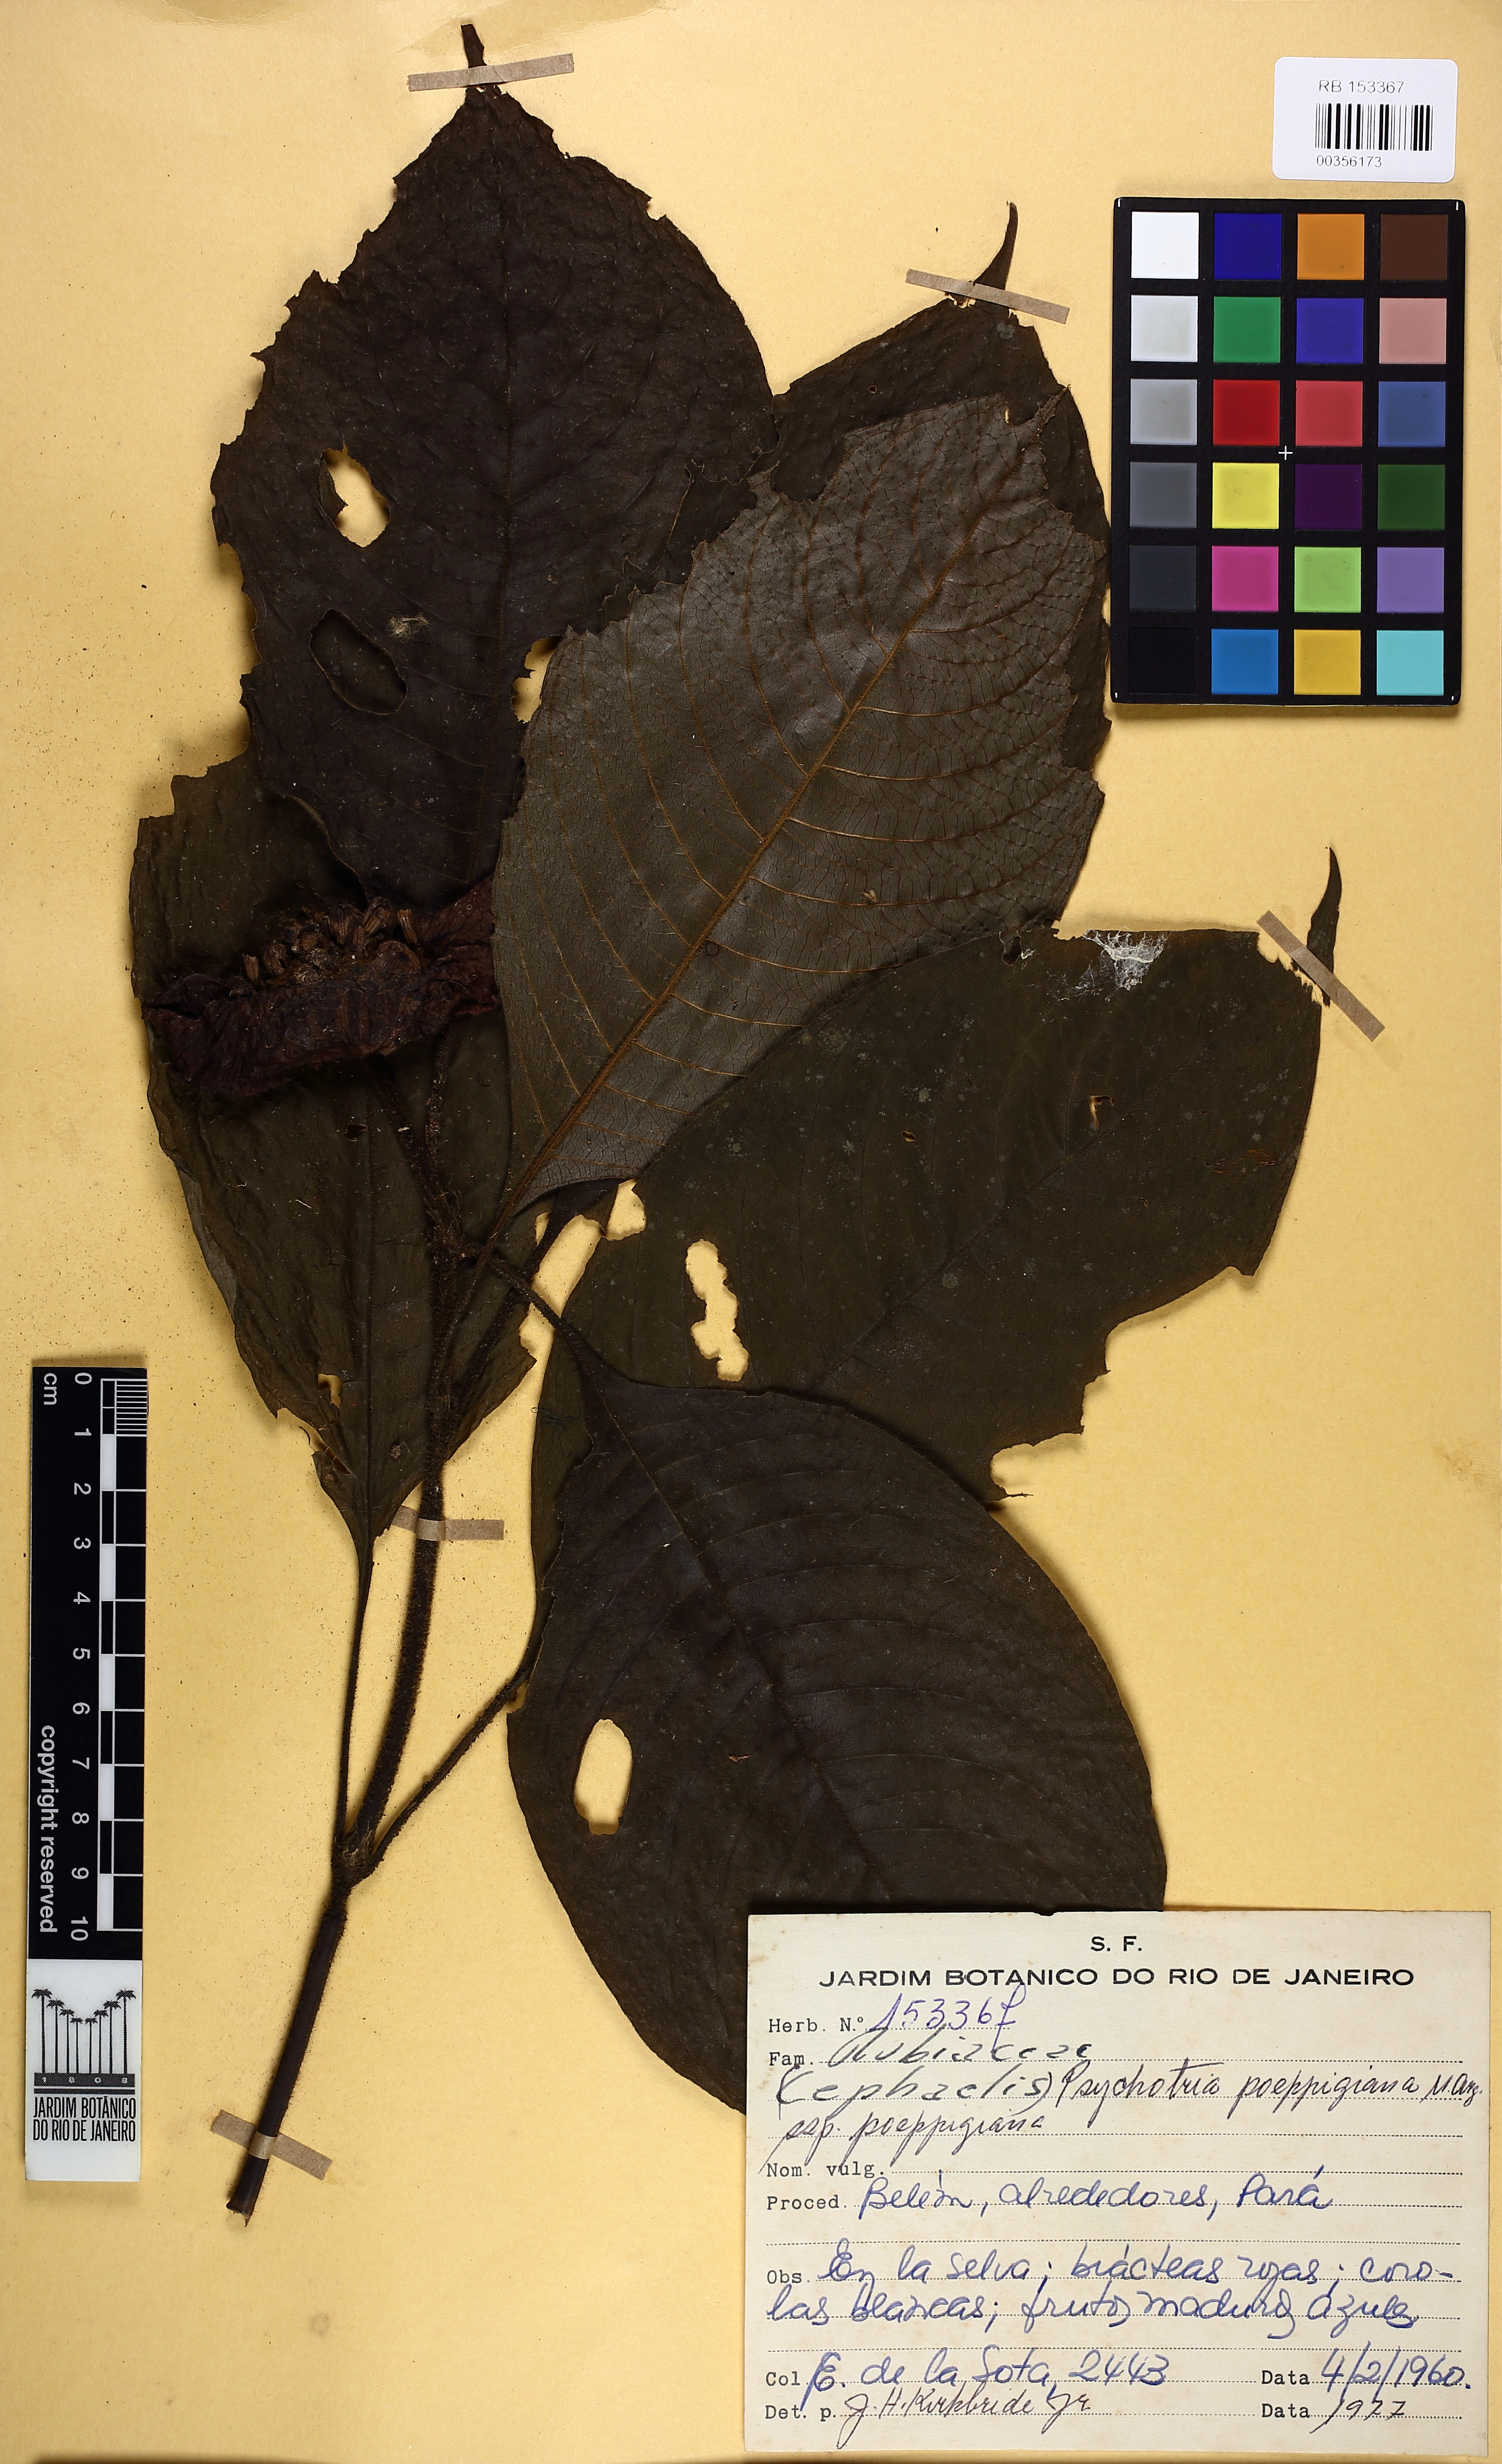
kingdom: Plantae
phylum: Tracheophyta
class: Magnoliopsida
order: Gentianales
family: Rubiaceae
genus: Palicourea
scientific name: Palicourea tomentosa
